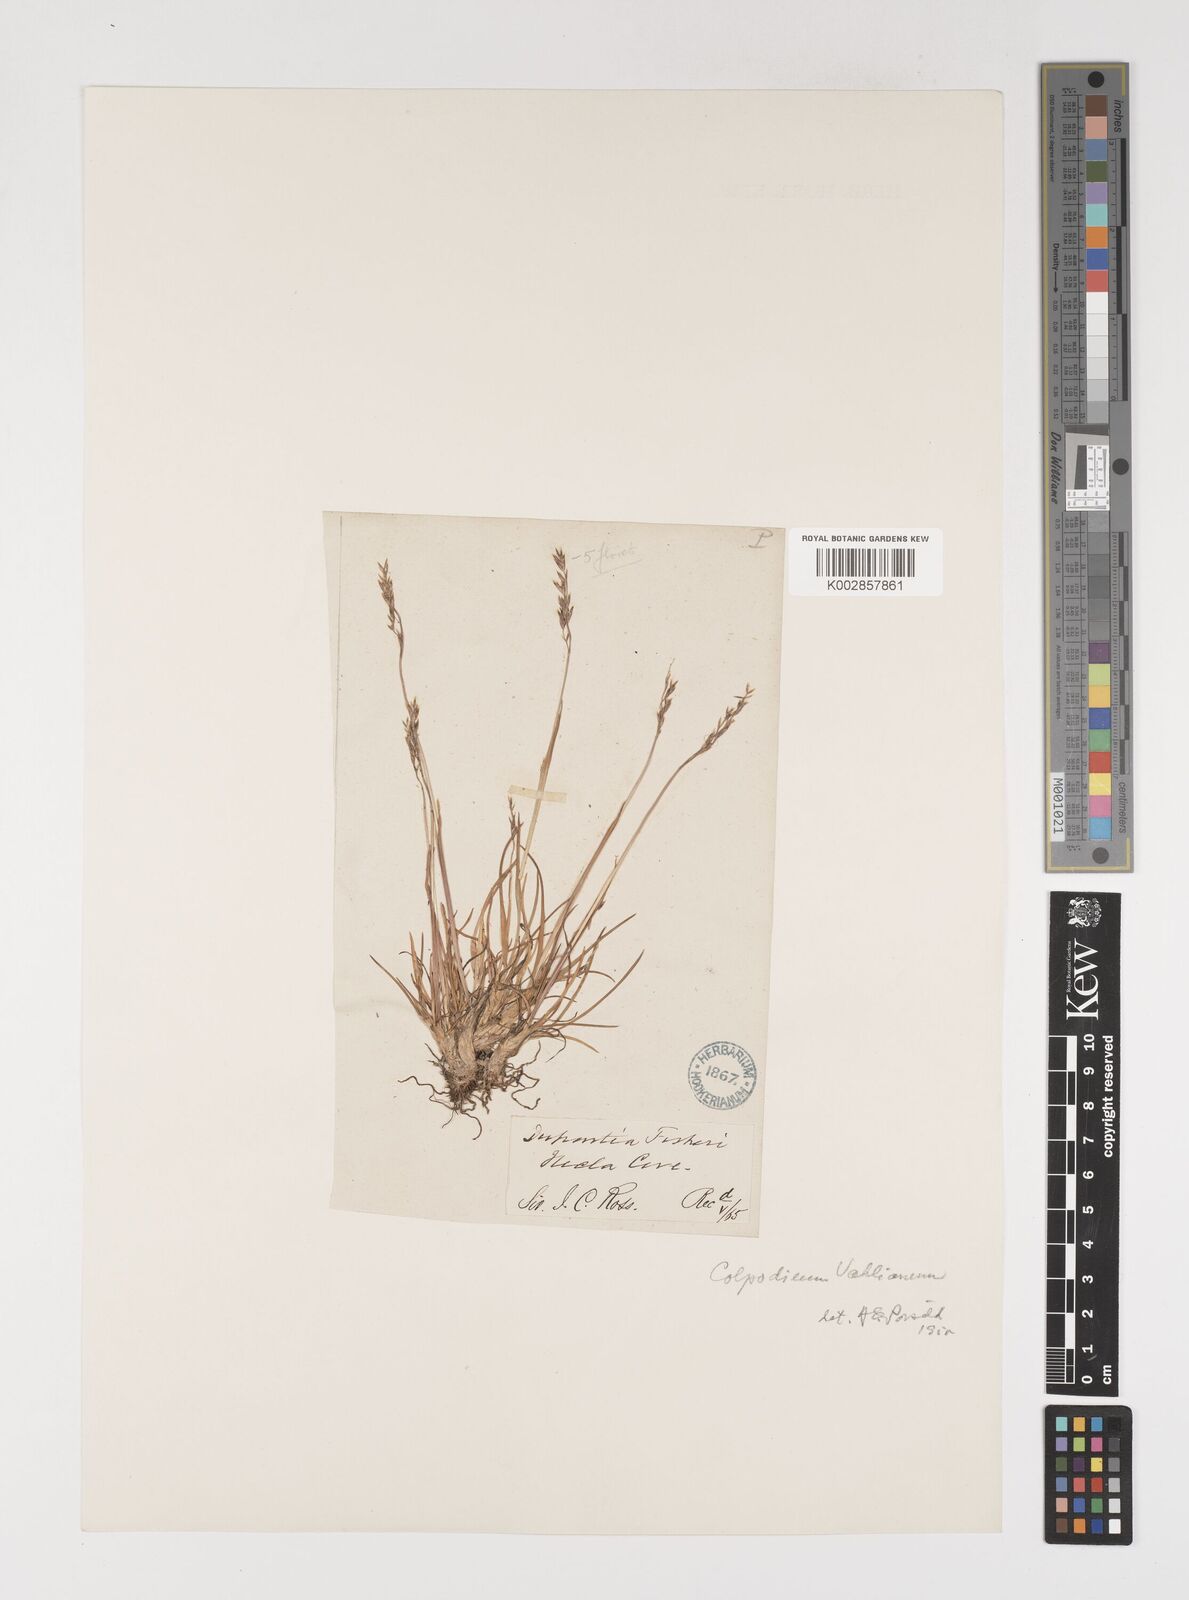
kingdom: Plantae
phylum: Tracheophyta
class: Liliopsida
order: Poales
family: Poaceae
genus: Puccinellia
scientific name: Puccinellia vahliana
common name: Vahl's alkaligrass
